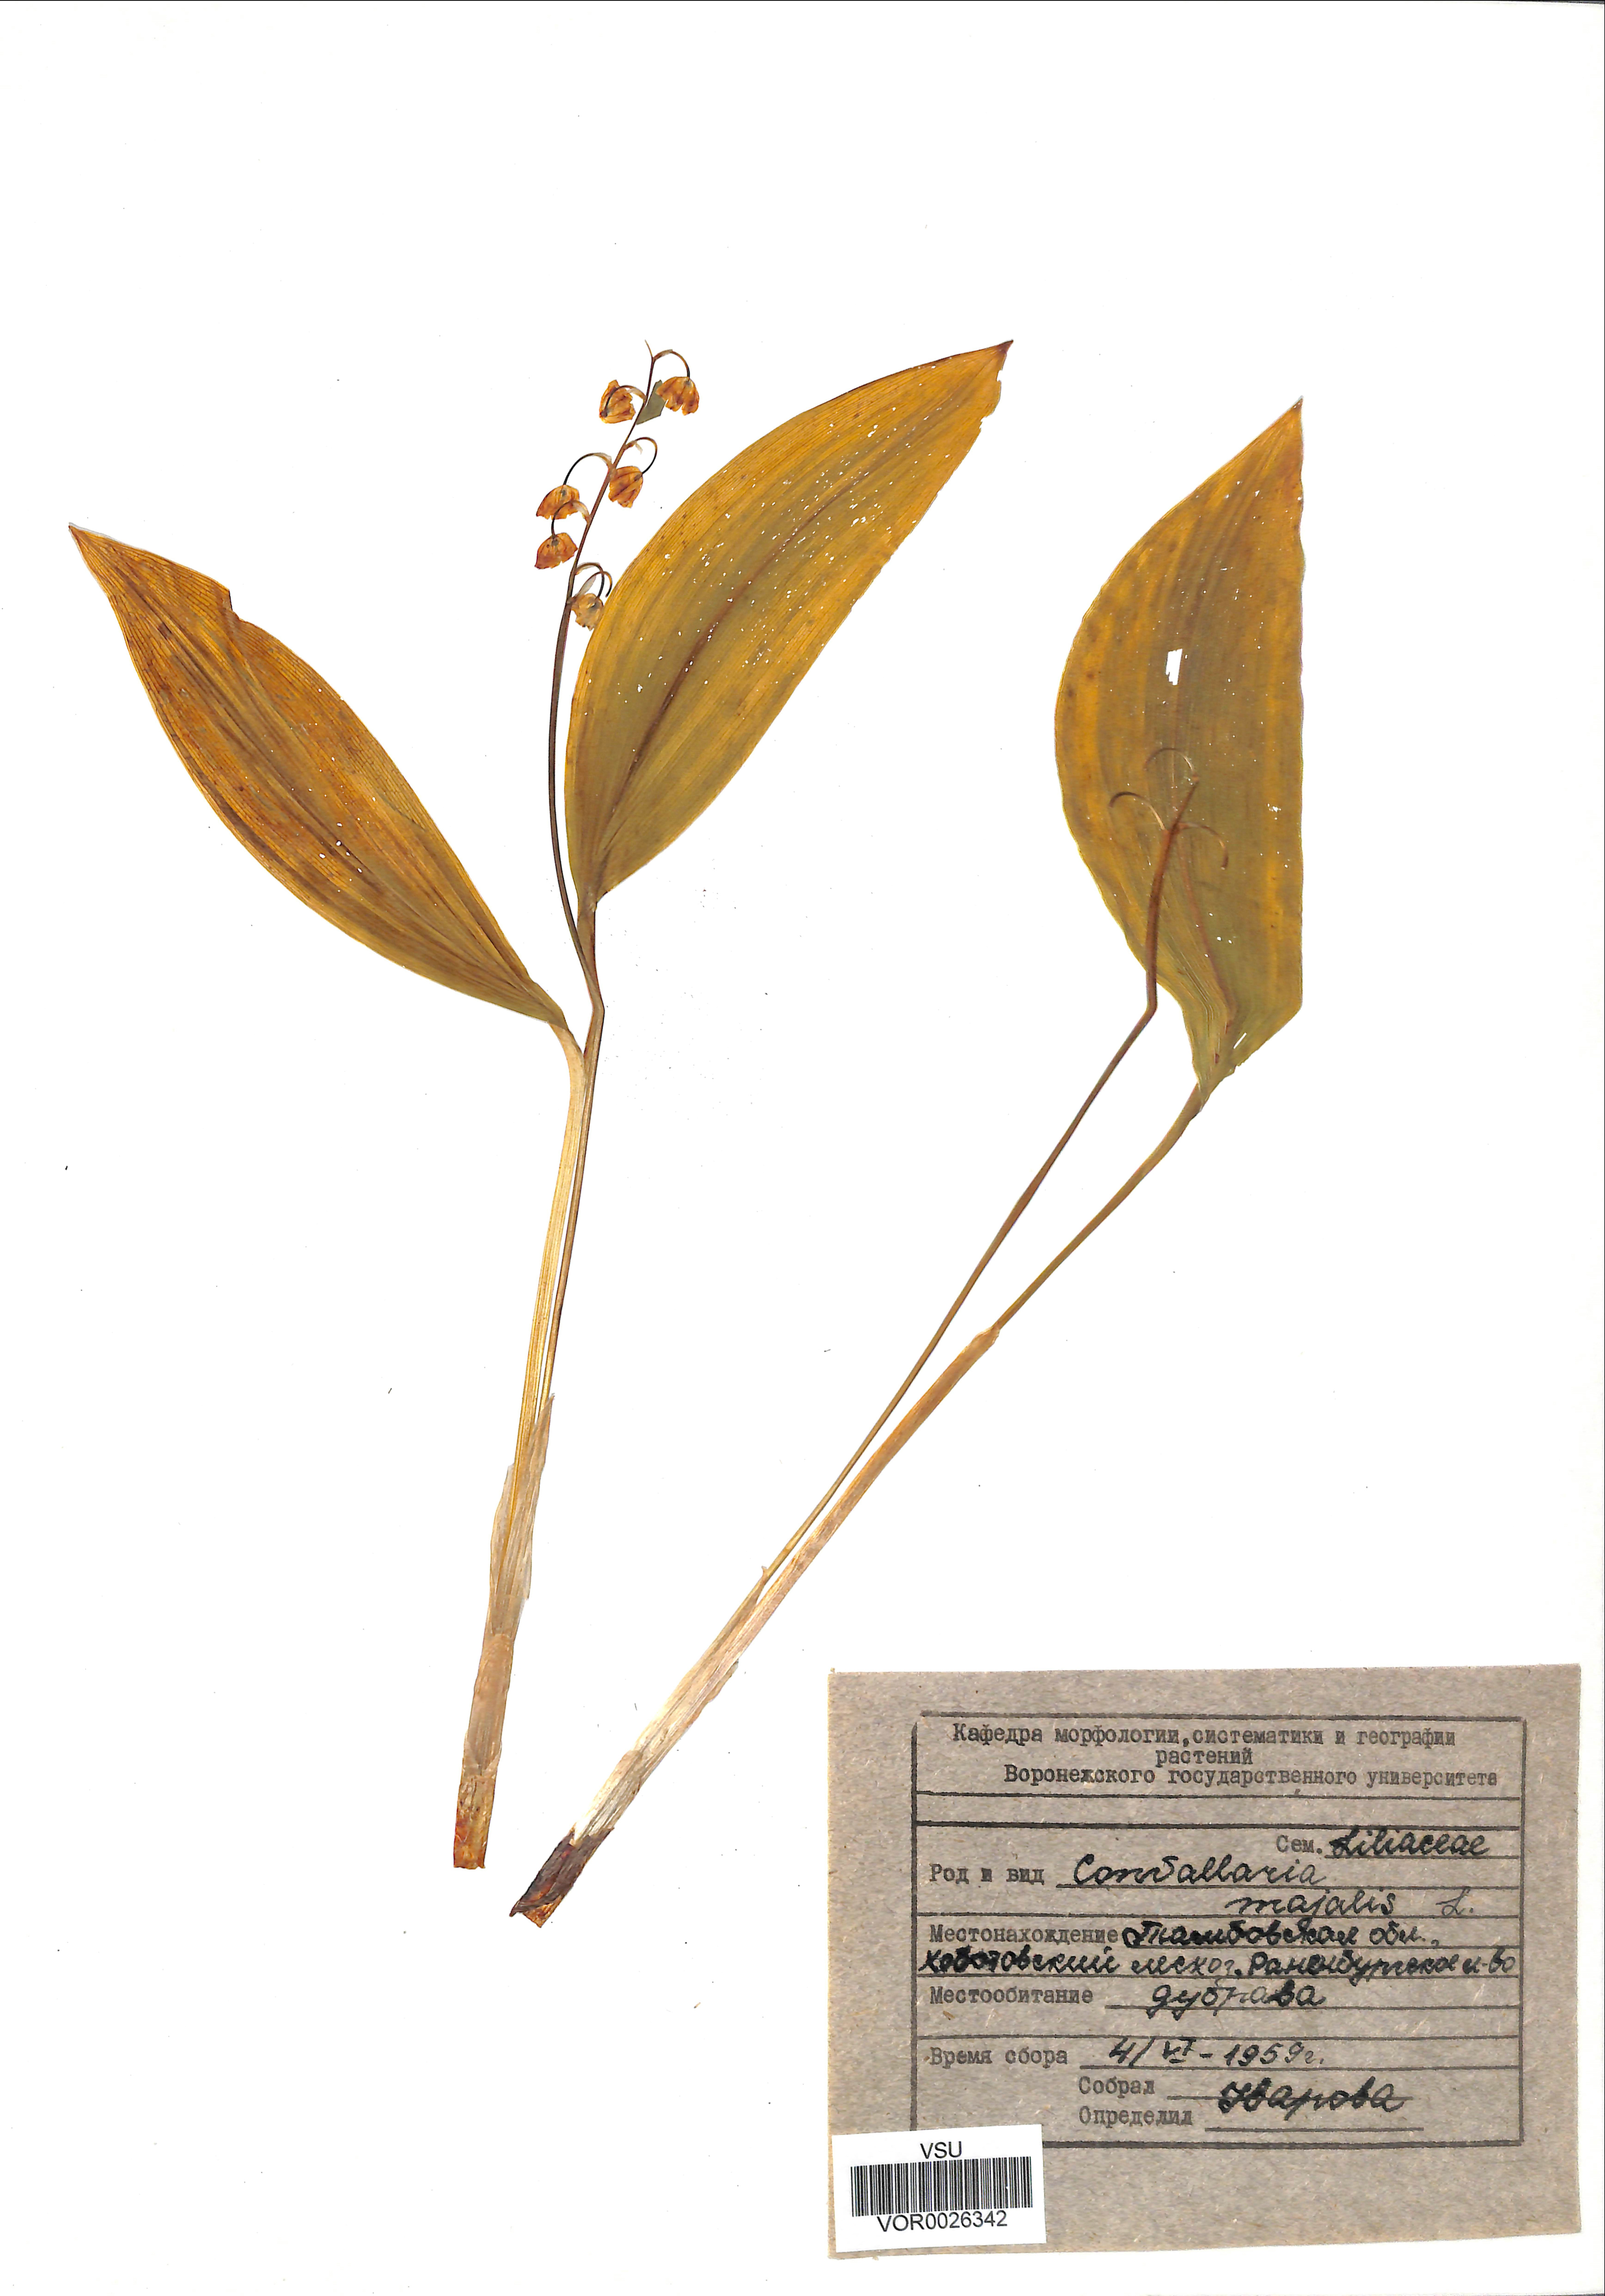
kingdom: Plantae
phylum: Tracheophyta
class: Liliopsida
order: Asparagales
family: Asparagaceae
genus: Convallaria
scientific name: Convallaria majalis
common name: Lily-of-the-valley
